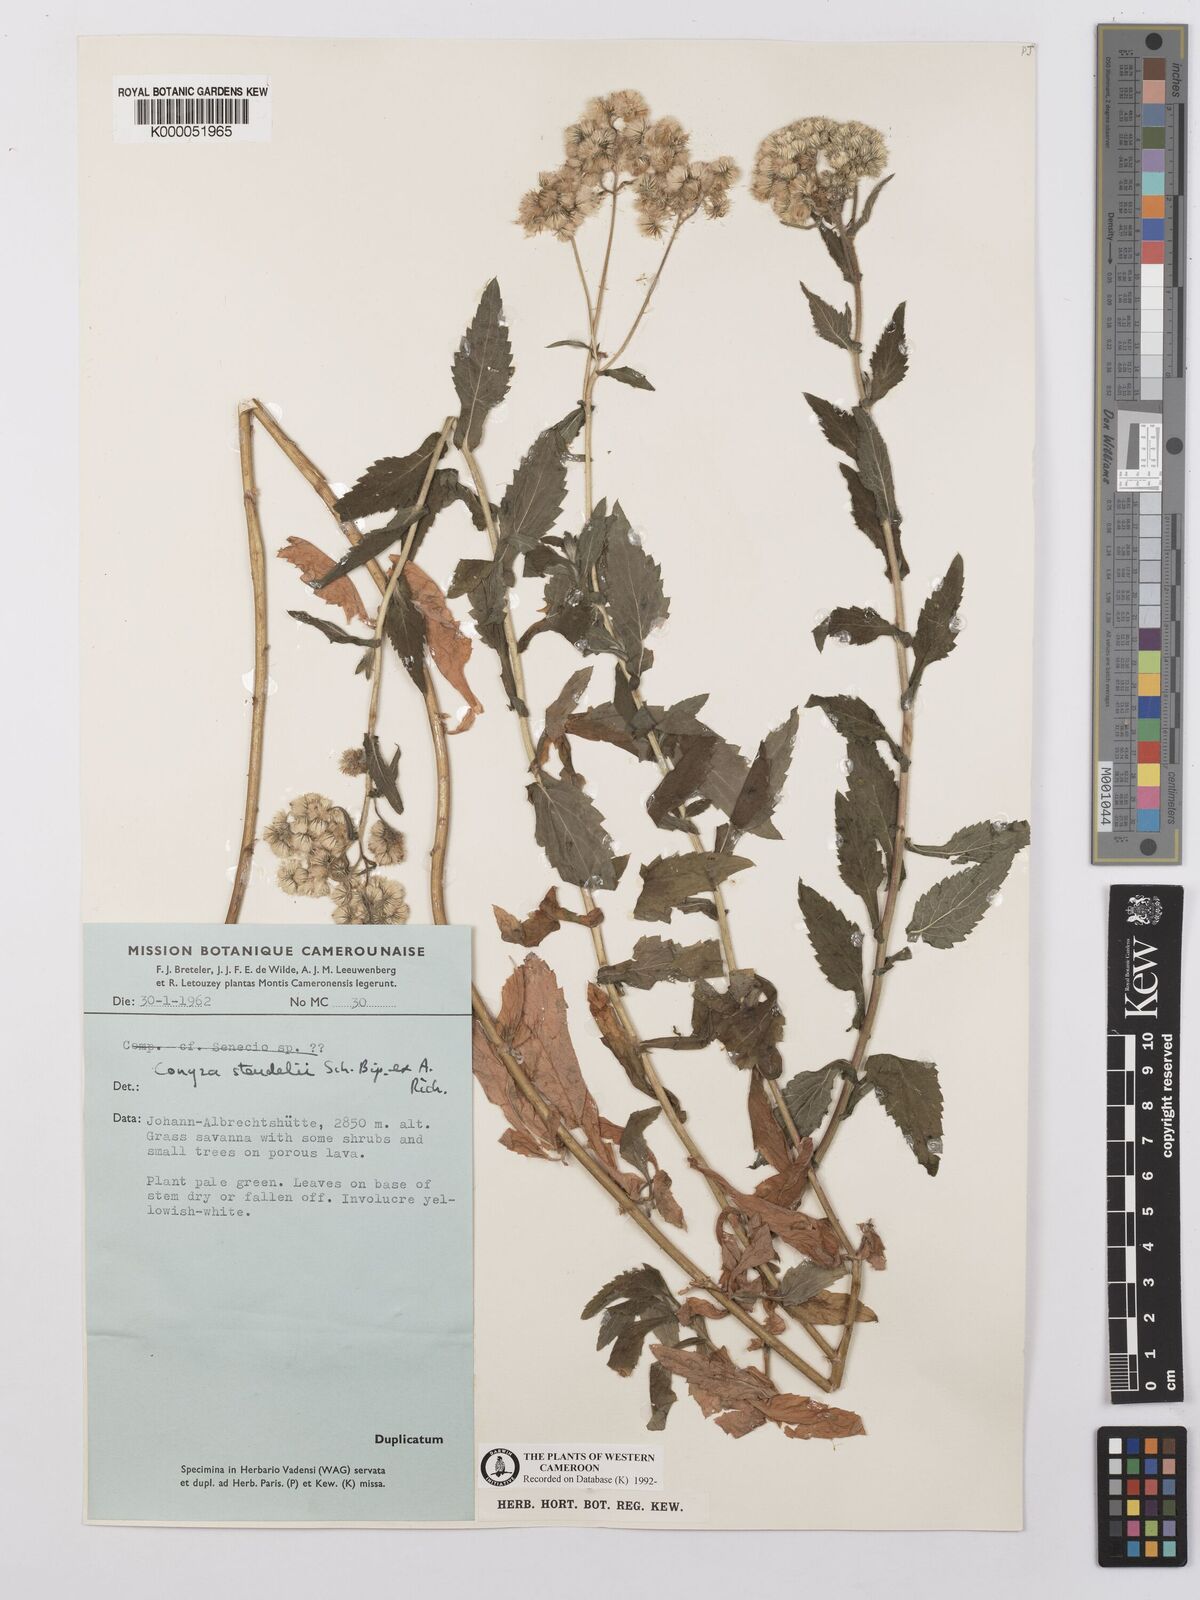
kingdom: Plantae
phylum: Tracheophyta
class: Magnoliopsida
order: Asterales
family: Asteraceae
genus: Conyza
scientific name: Conyza steudelii
